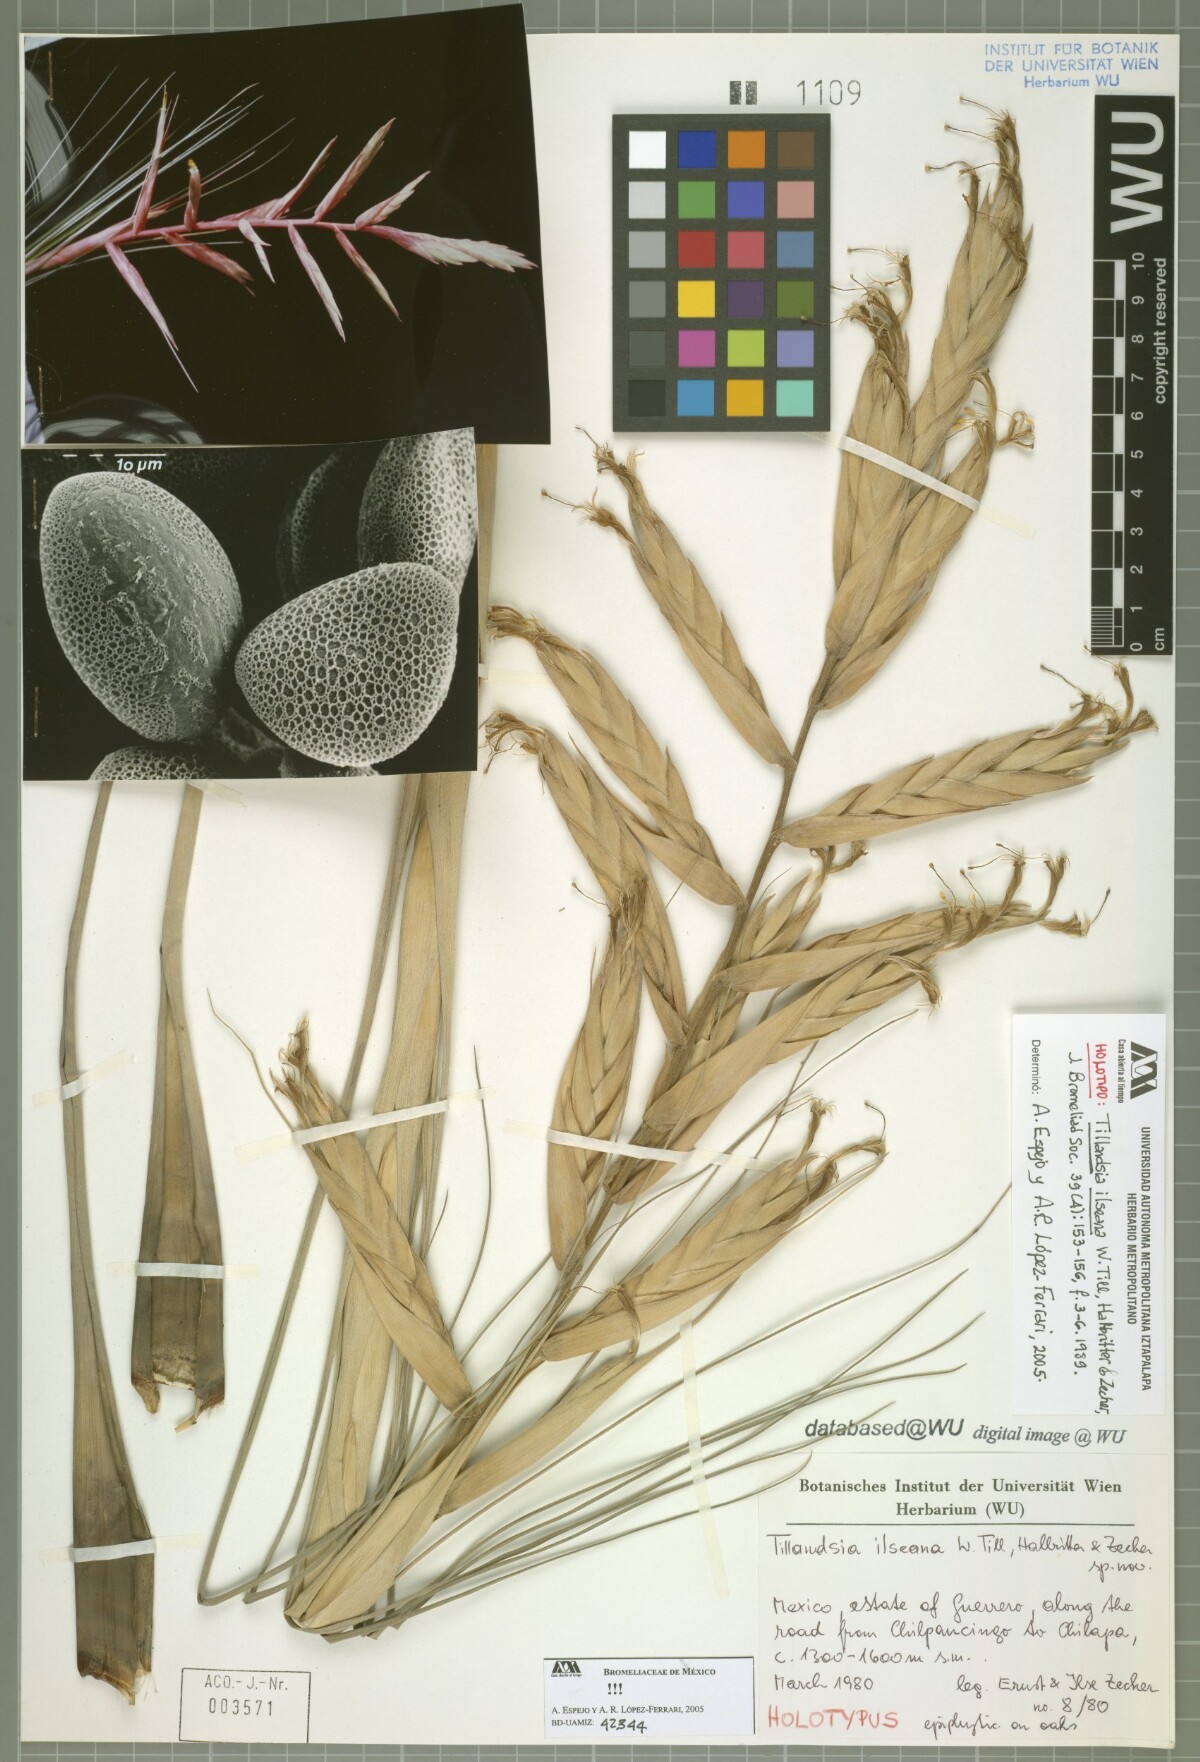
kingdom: Plantae
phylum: Tracheophyta
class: Liliopsida
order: Poales
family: Bromeliaceae
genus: Tillandsia
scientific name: Tillandsia ilseana
